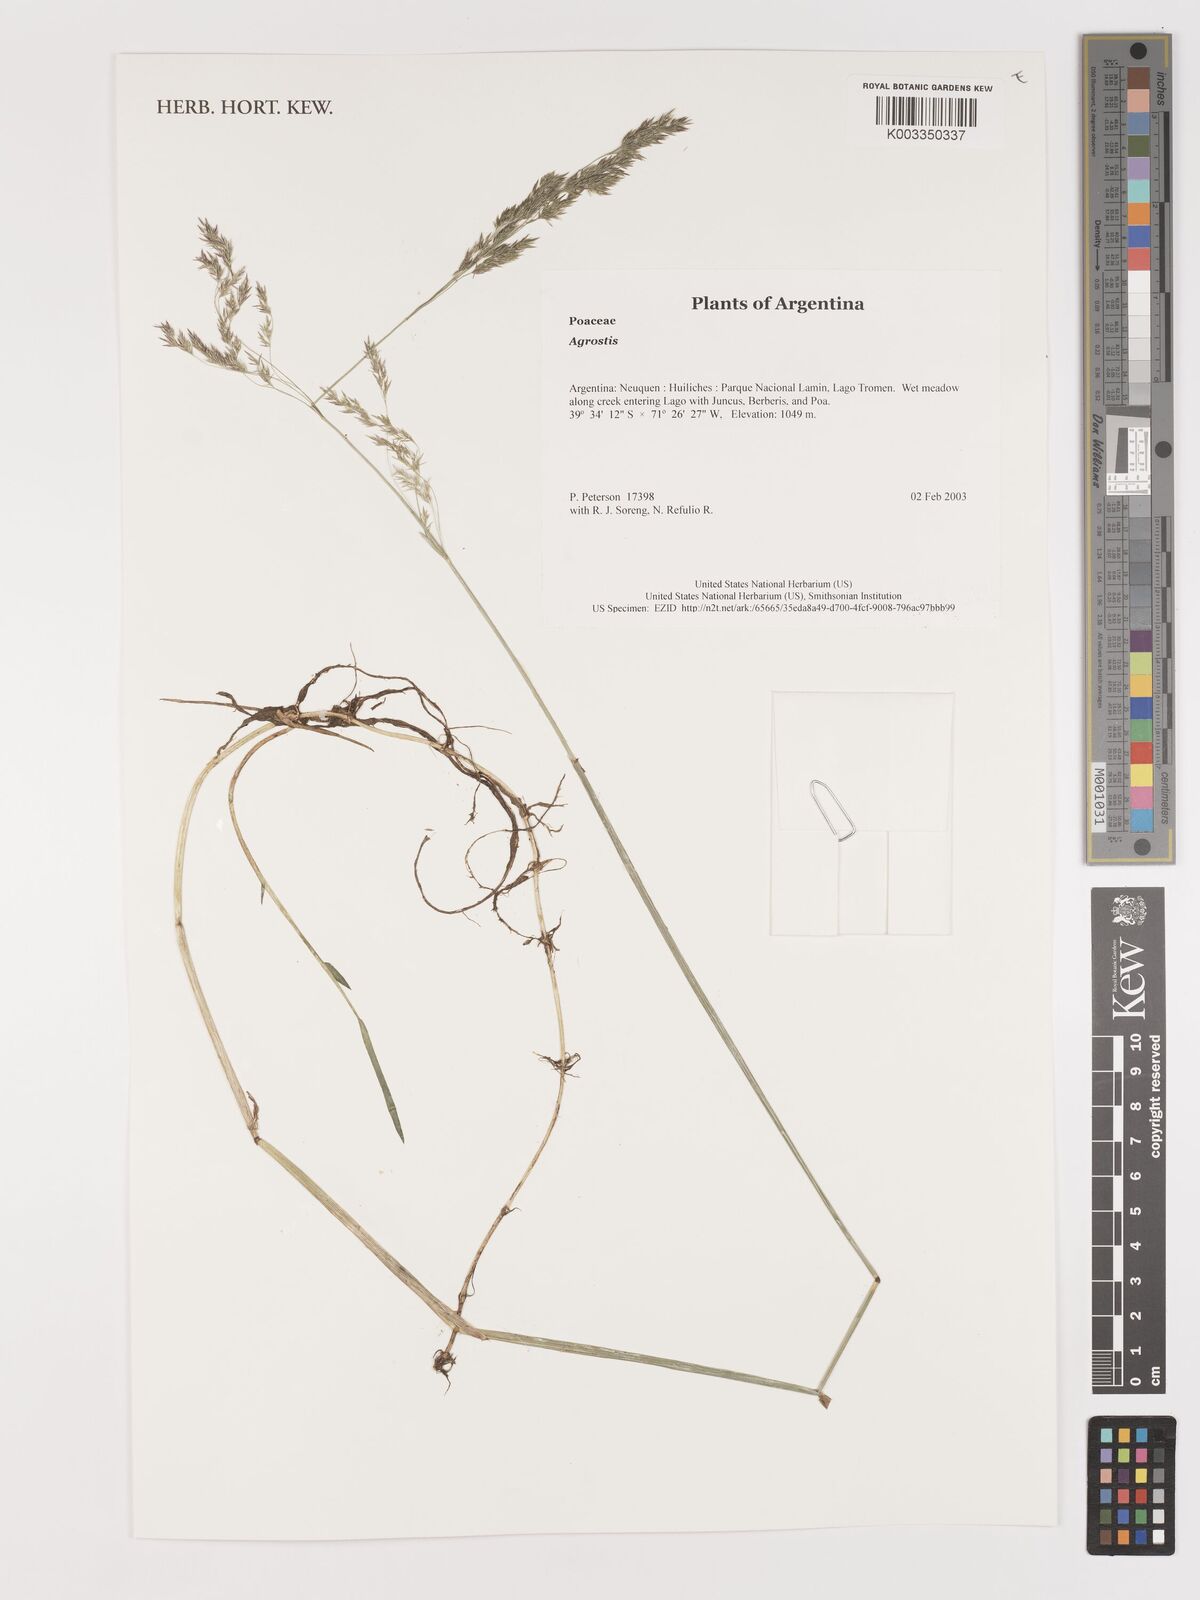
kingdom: Plantae
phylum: Tracheophyta
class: Liliopsida
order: Poales
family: Poaceae
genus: Agrostis
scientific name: Agrostis
